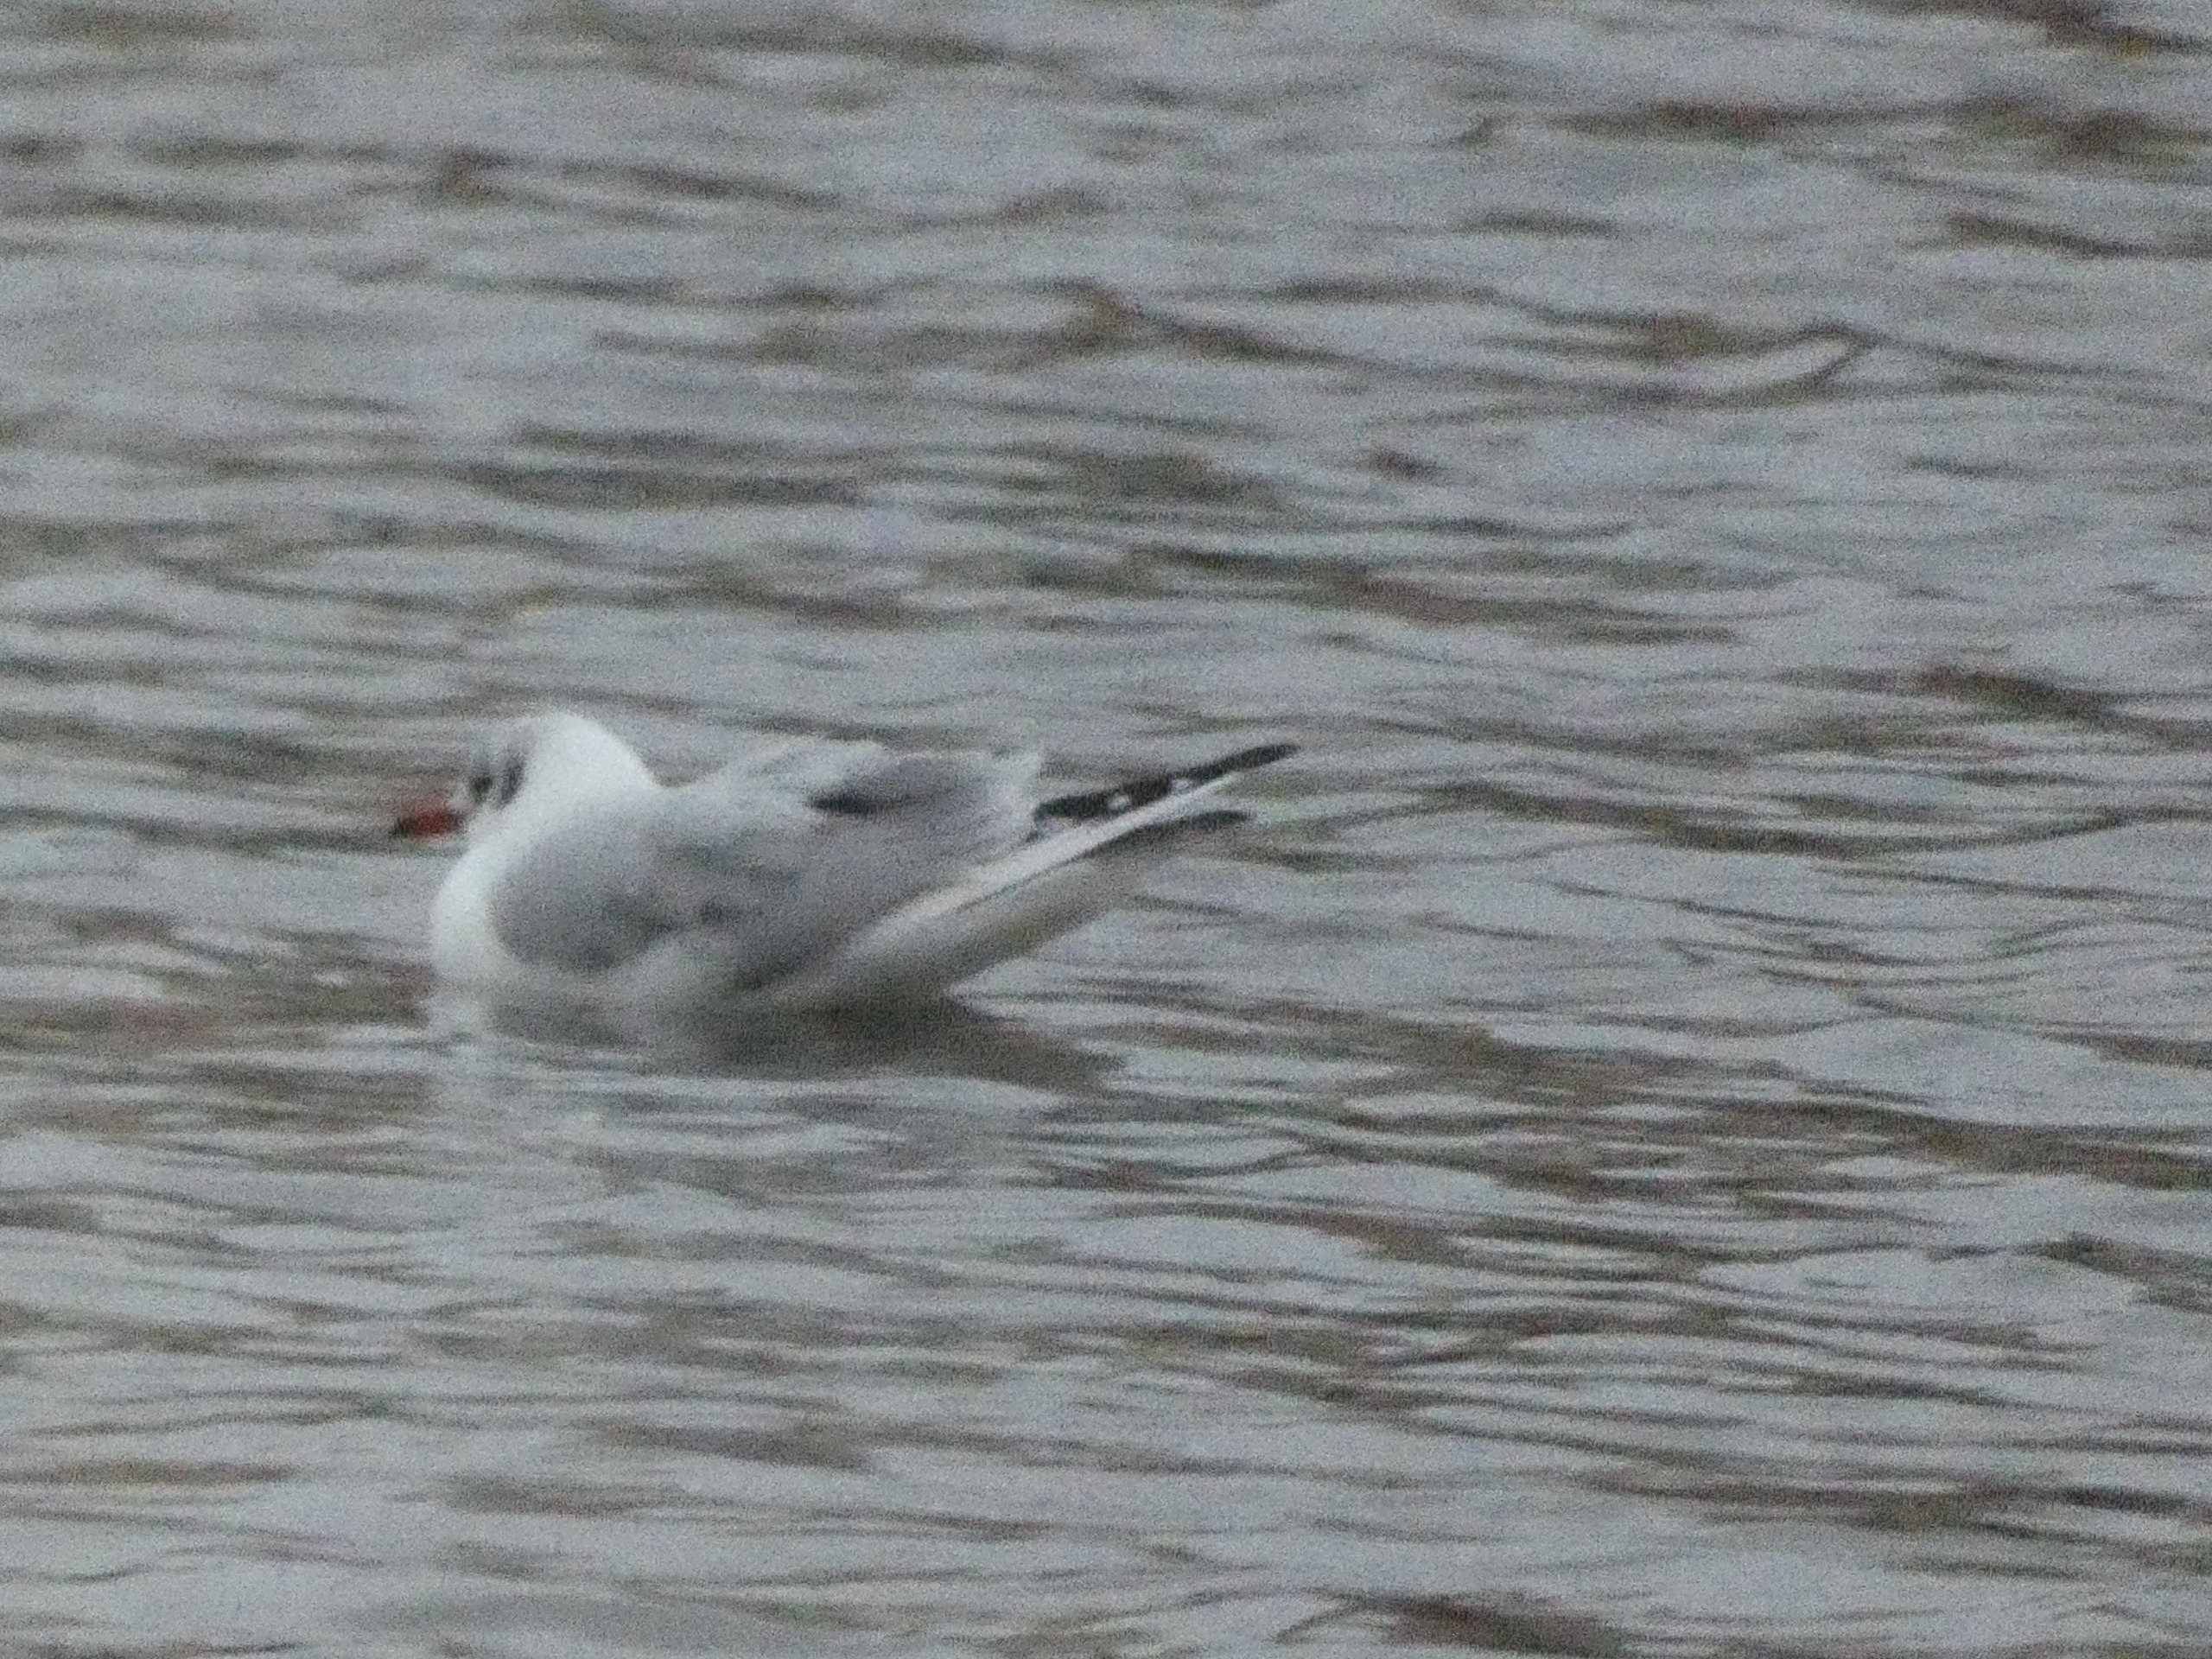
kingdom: Animalia
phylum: Chordata
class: Aves
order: Charadriiformes
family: Laridae
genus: Chroicocephalus
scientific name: Chroicocephalus ridibundus
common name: Hættemåge
